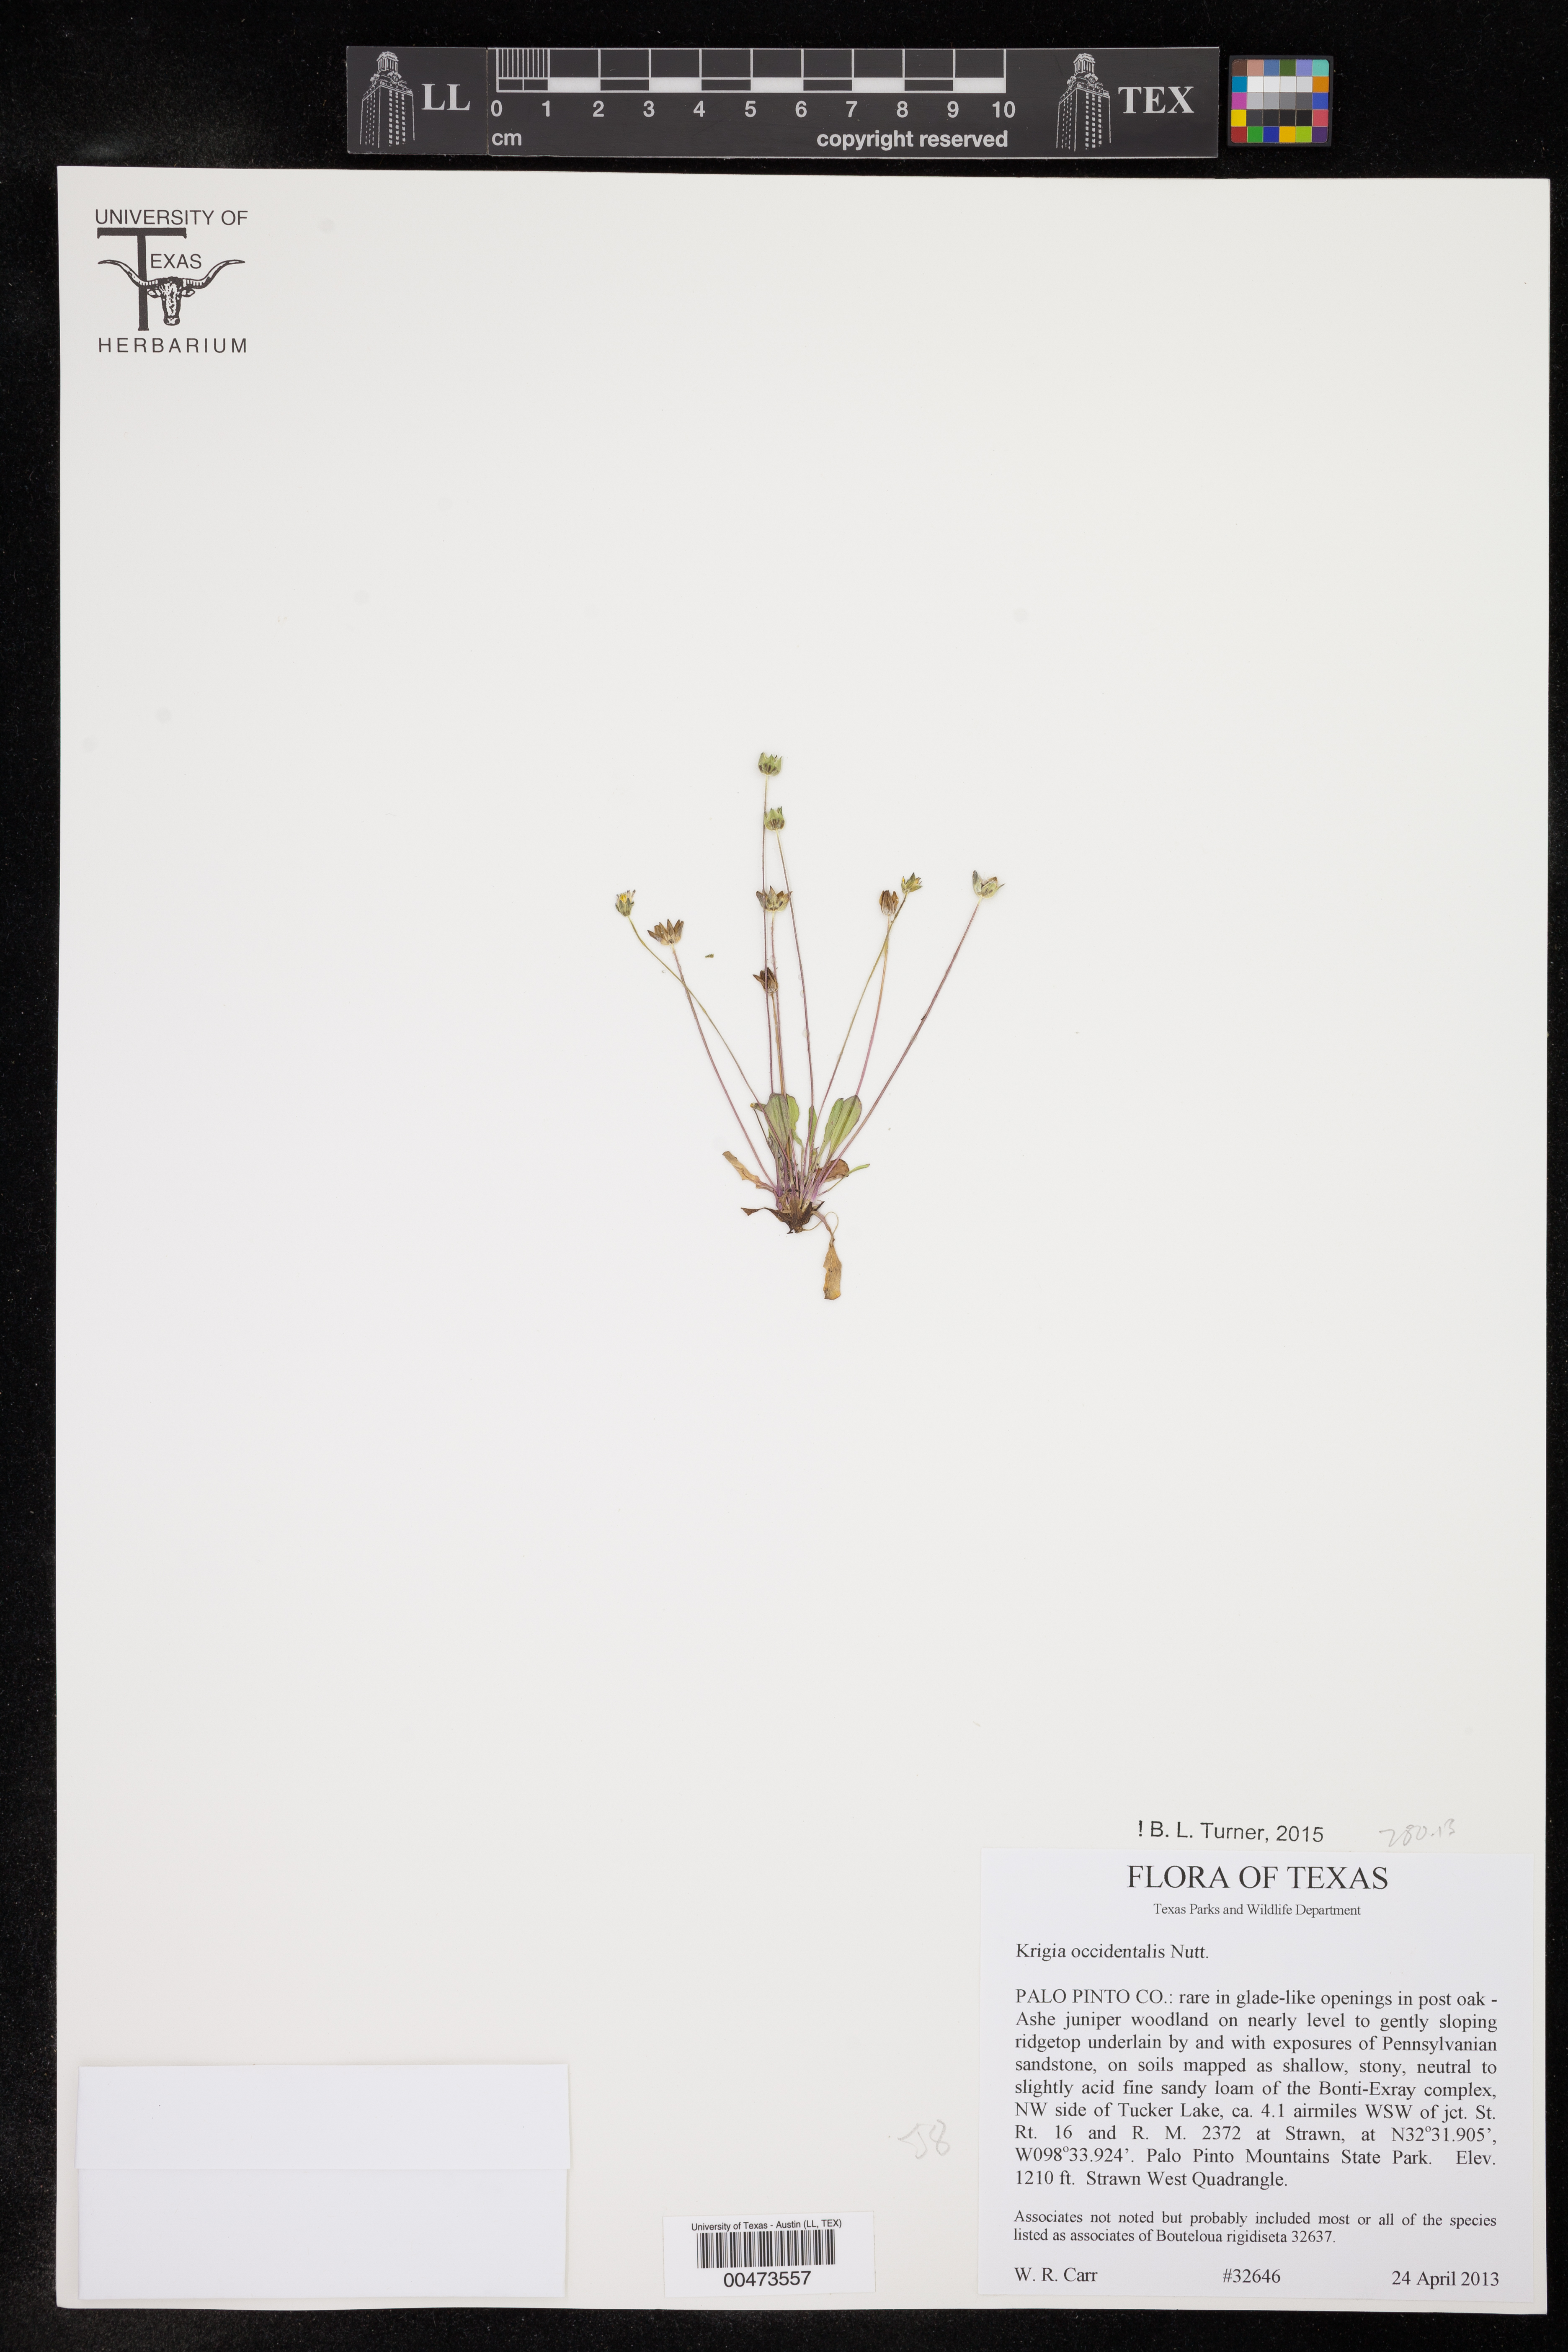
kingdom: Plantae
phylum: Tracheophyta
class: Magnoliopsida
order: Asterales
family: Asteraceae
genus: Krigia
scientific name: Krigia occidentalis
